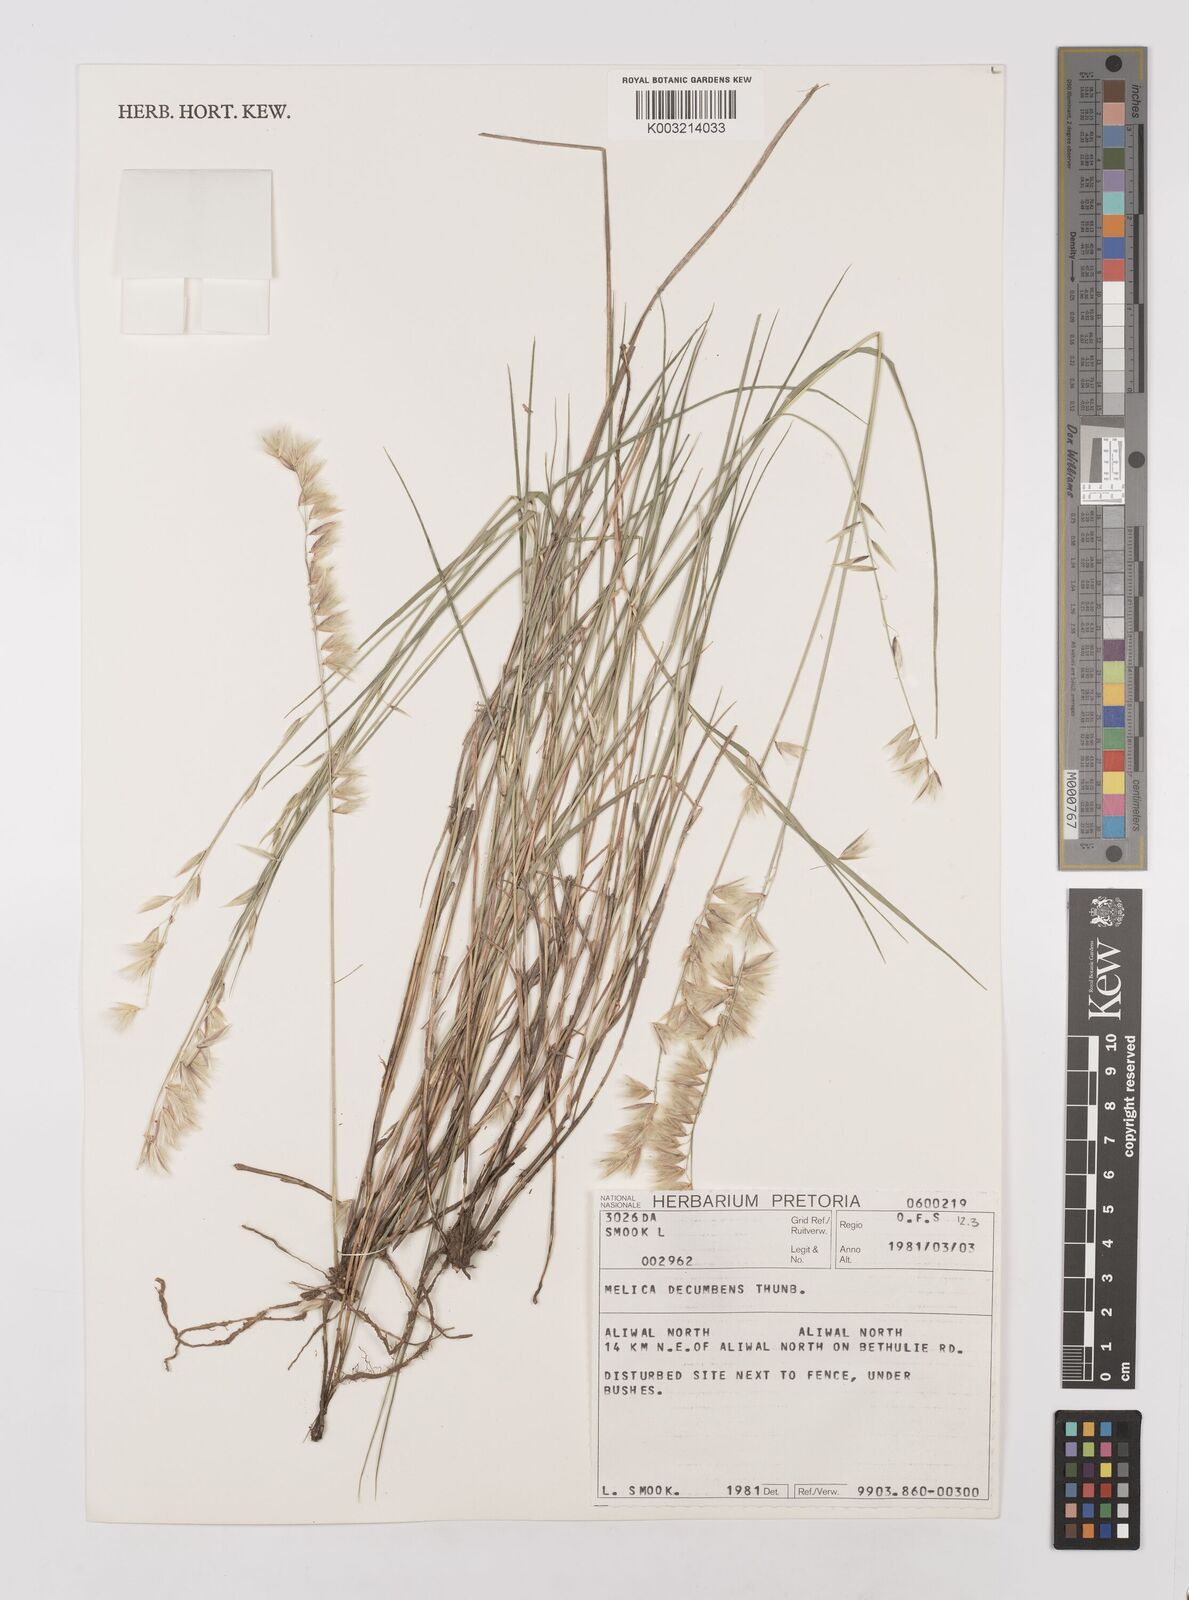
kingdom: Plantae
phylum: Tracheophyta
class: Liliopsida
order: Poales
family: Poaceae
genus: Melica
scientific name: Melica dendroides
